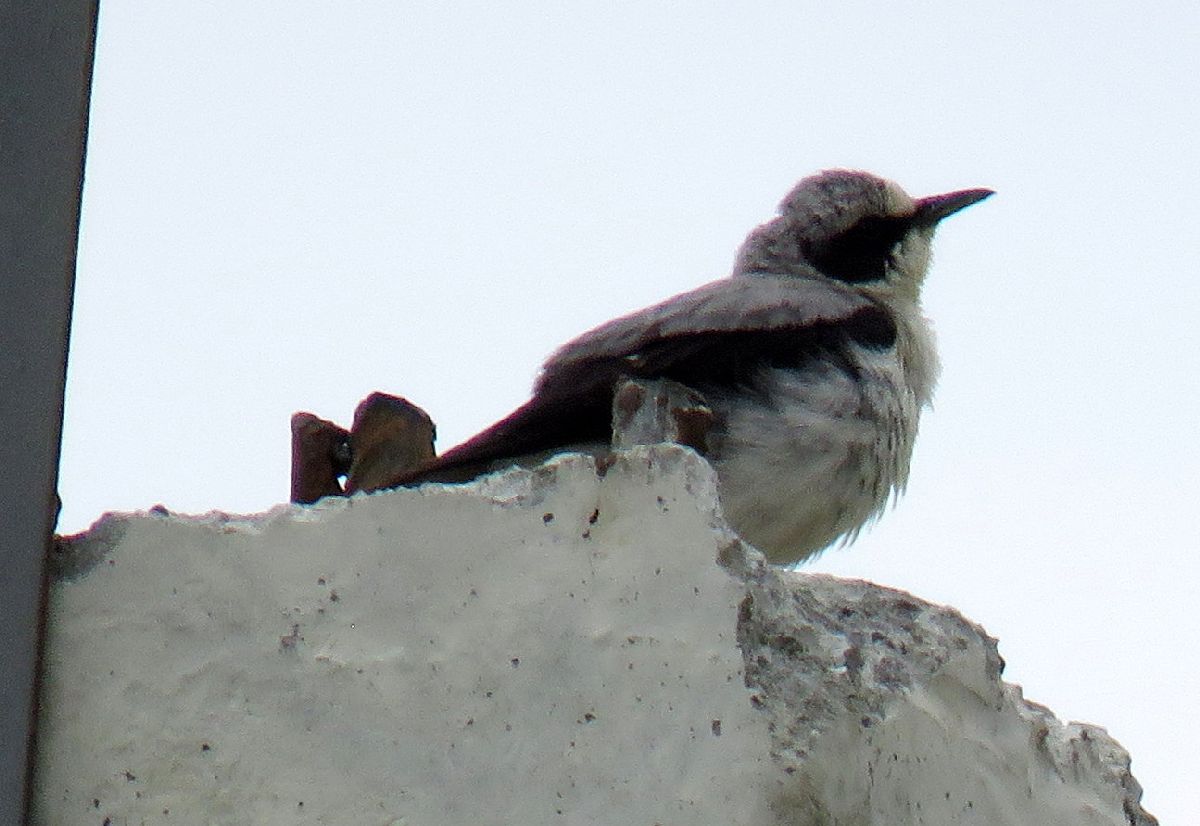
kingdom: Animalia
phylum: Chordata
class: Aves
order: Passeriformes
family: Muscicapidae
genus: Oenanthe
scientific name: Oenanthe oenanthe
